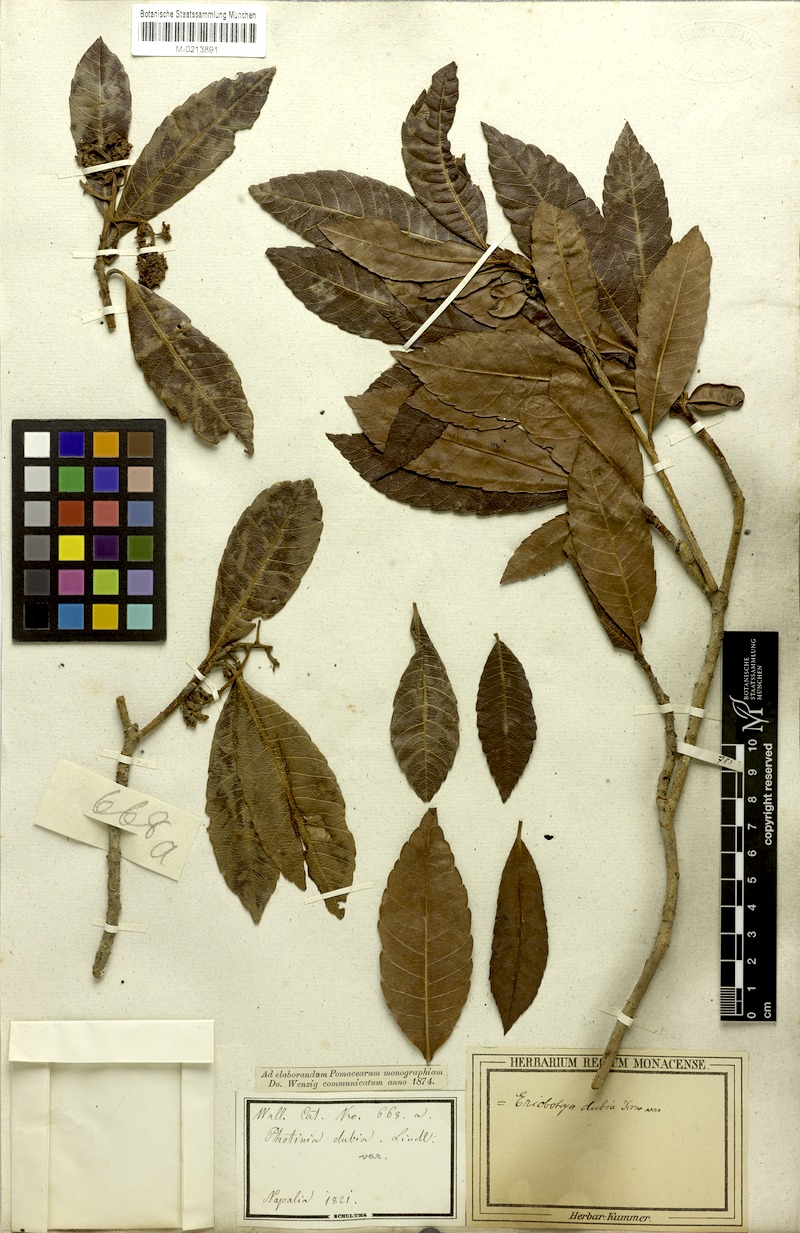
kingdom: Plantae
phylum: Tracheophyta
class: Magnoliopsida
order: Rosales
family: Rosaceae
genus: Rhaphiolepis
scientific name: Rhaphiolepis dubia
